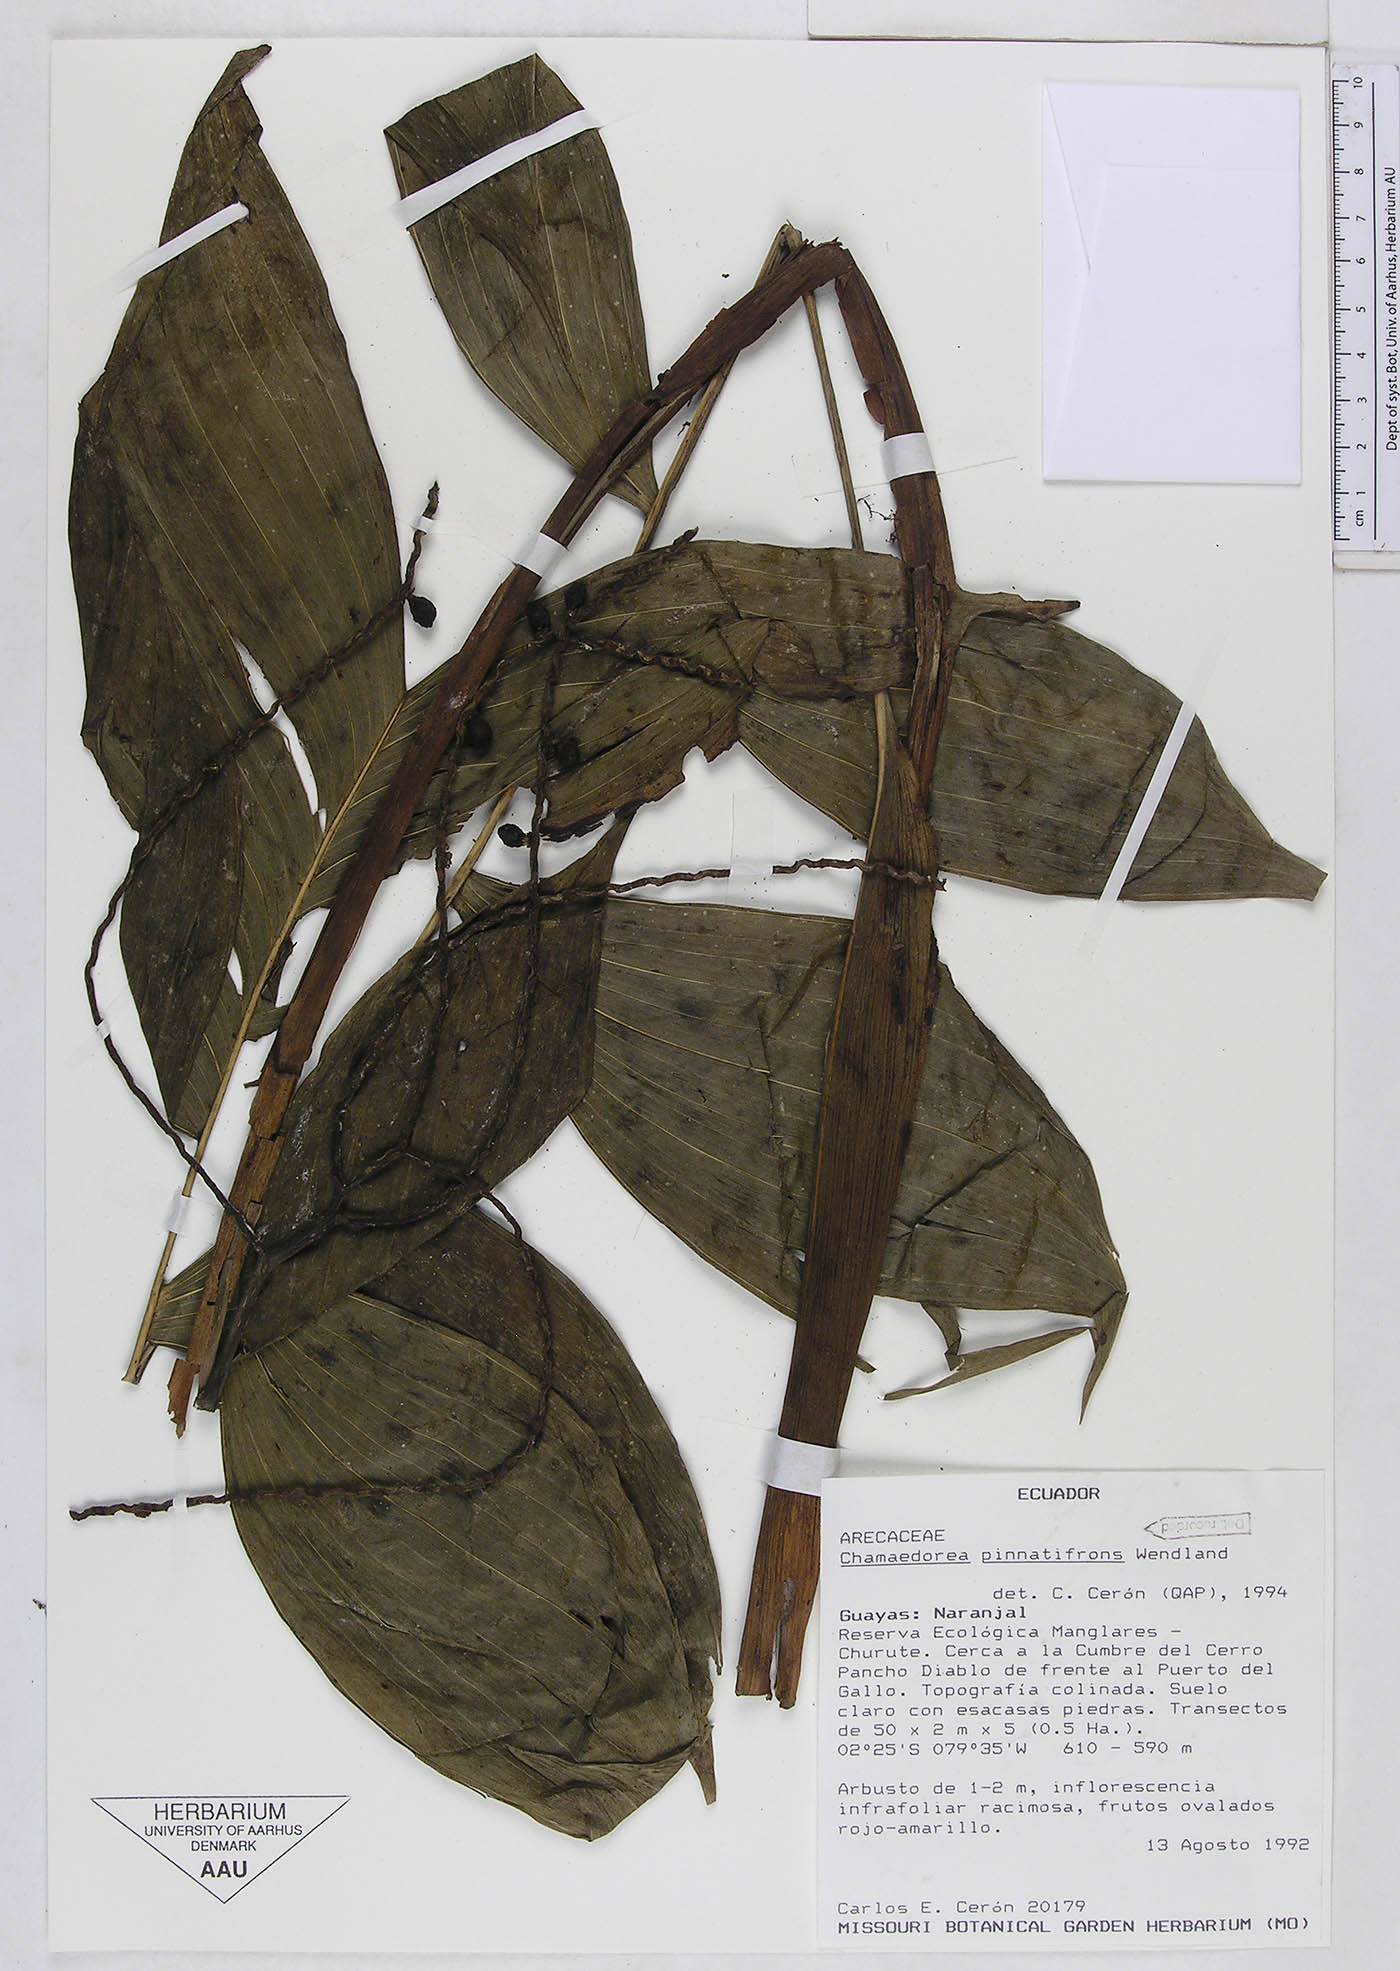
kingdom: Plantae
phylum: Tracheophyta
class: Liliopsida
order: Arecales
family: Arecaceae
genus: Chamaedorea
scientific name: Chamaedorea pinnatifrons
